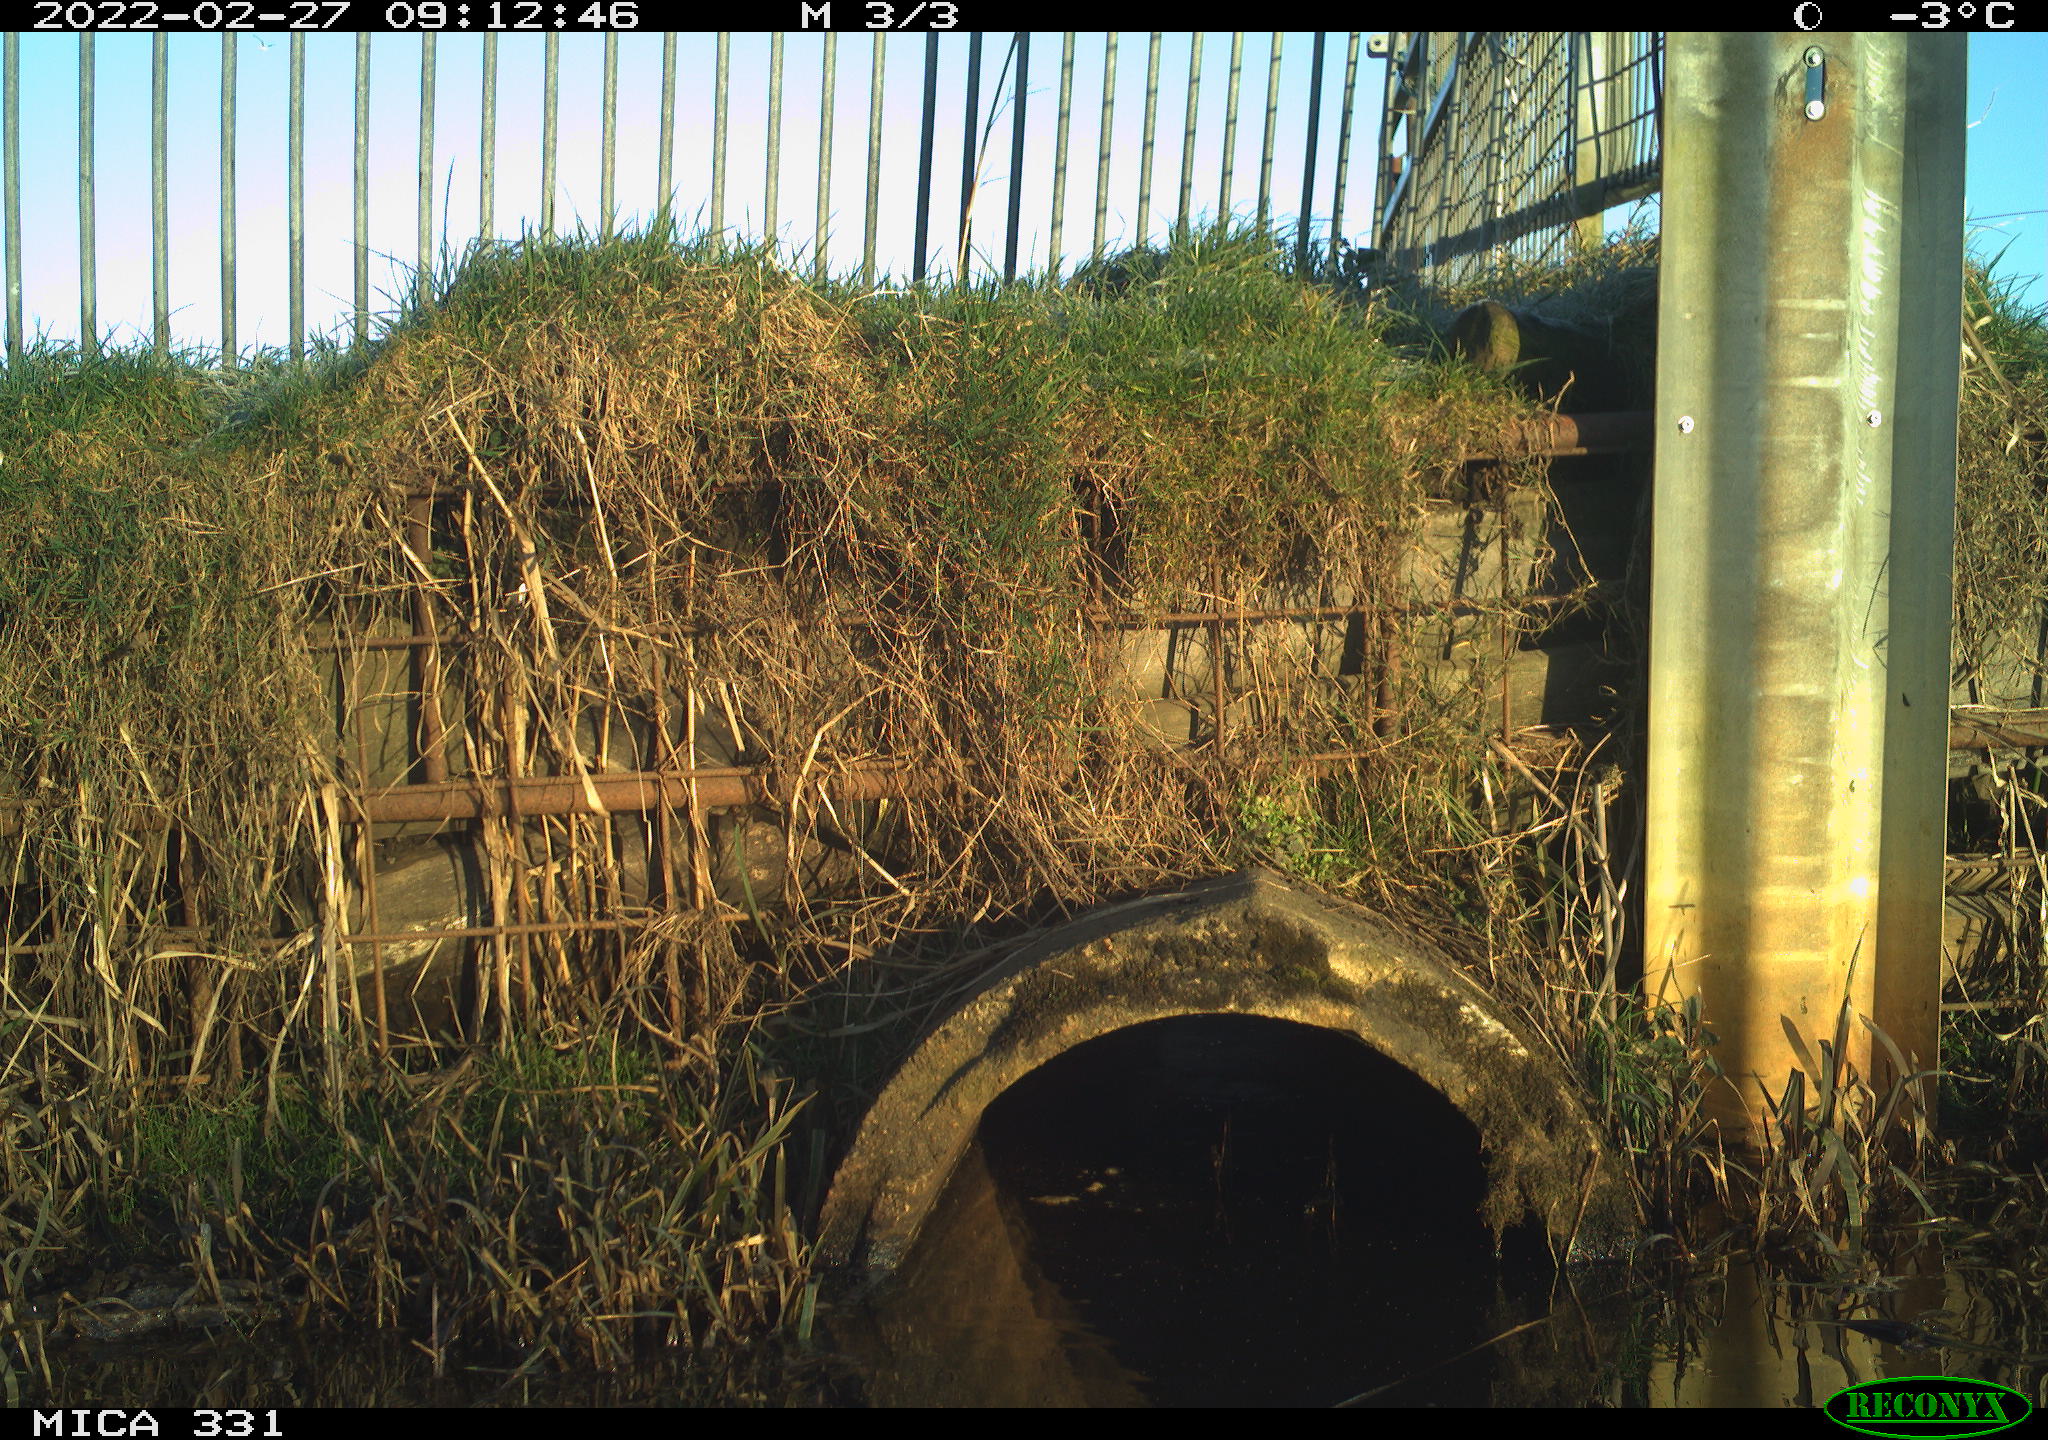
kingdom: Animalia
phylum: Chordata
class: Aves
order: Pelecaniformes
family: Ardeidae
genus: Ardea
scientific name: Ardea alba
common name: Great egret
